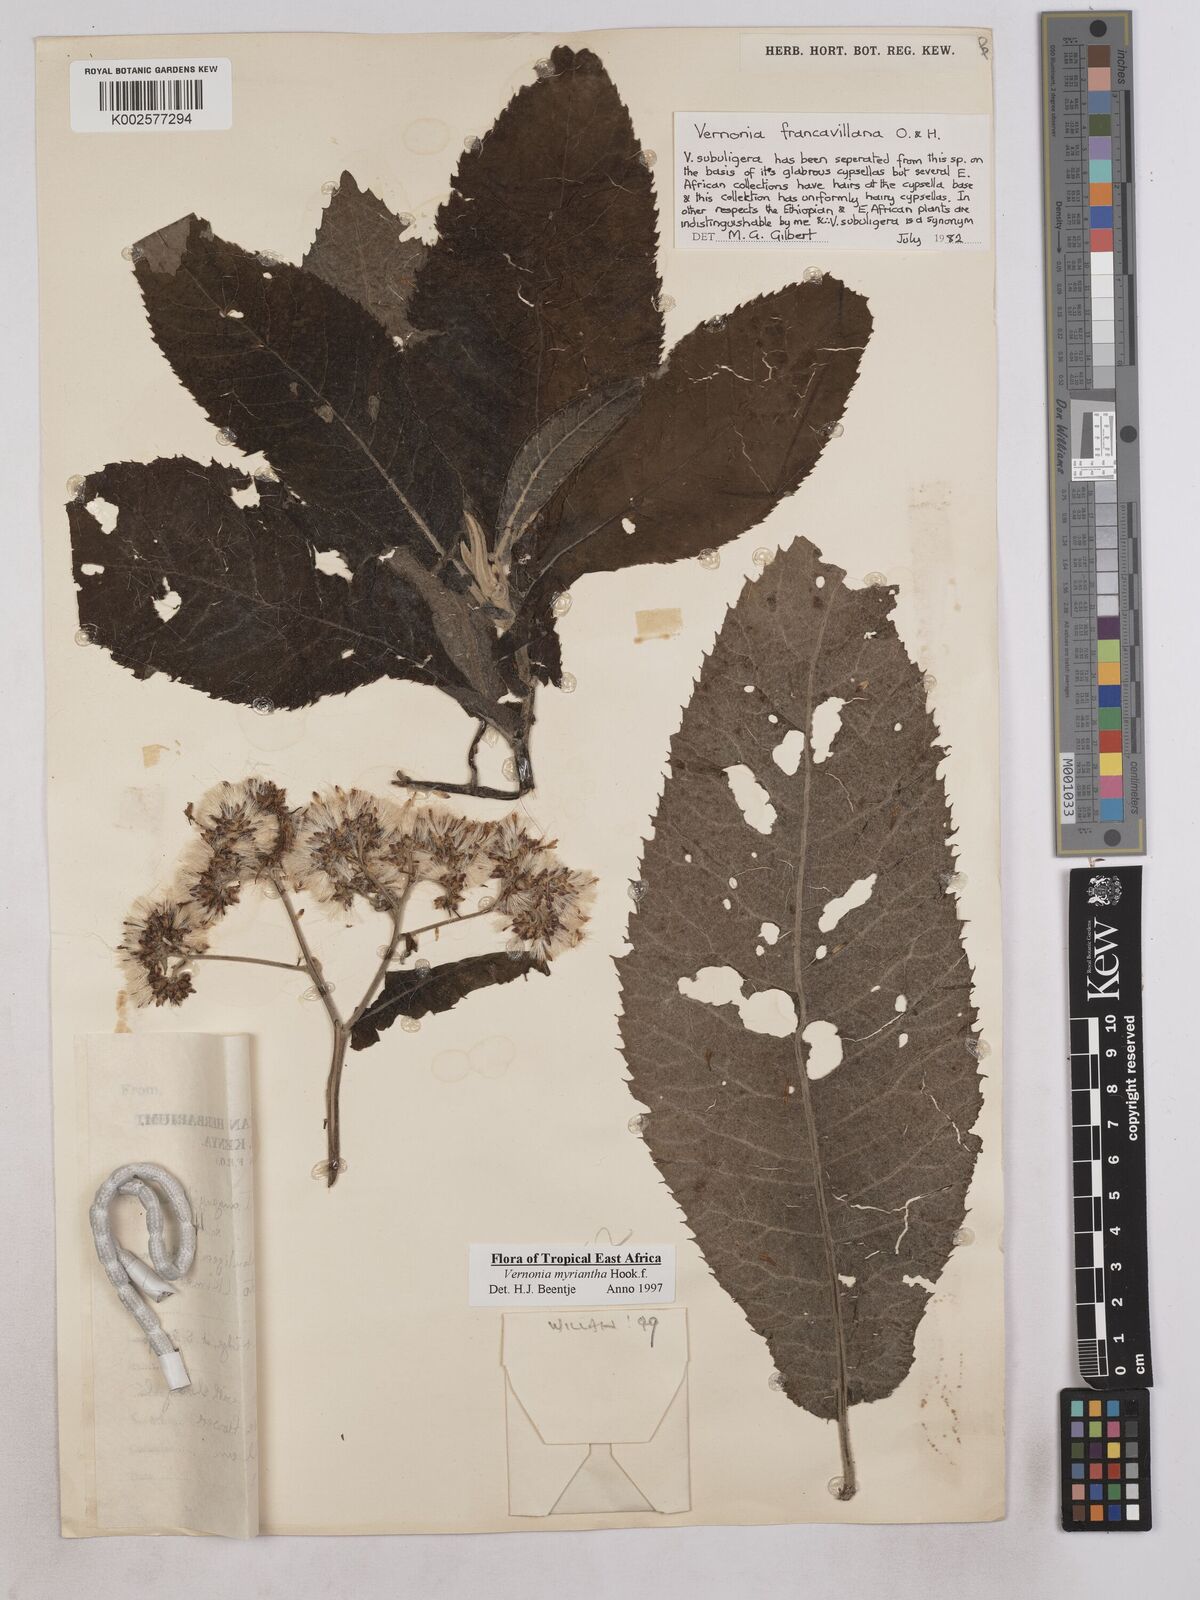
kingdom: Plantae
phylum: Tracheophyta
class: Magnoliopsida
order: Asterales
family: Asteraceae
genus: Gymnanthemum
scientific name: Gymnanthemum myrianthum
